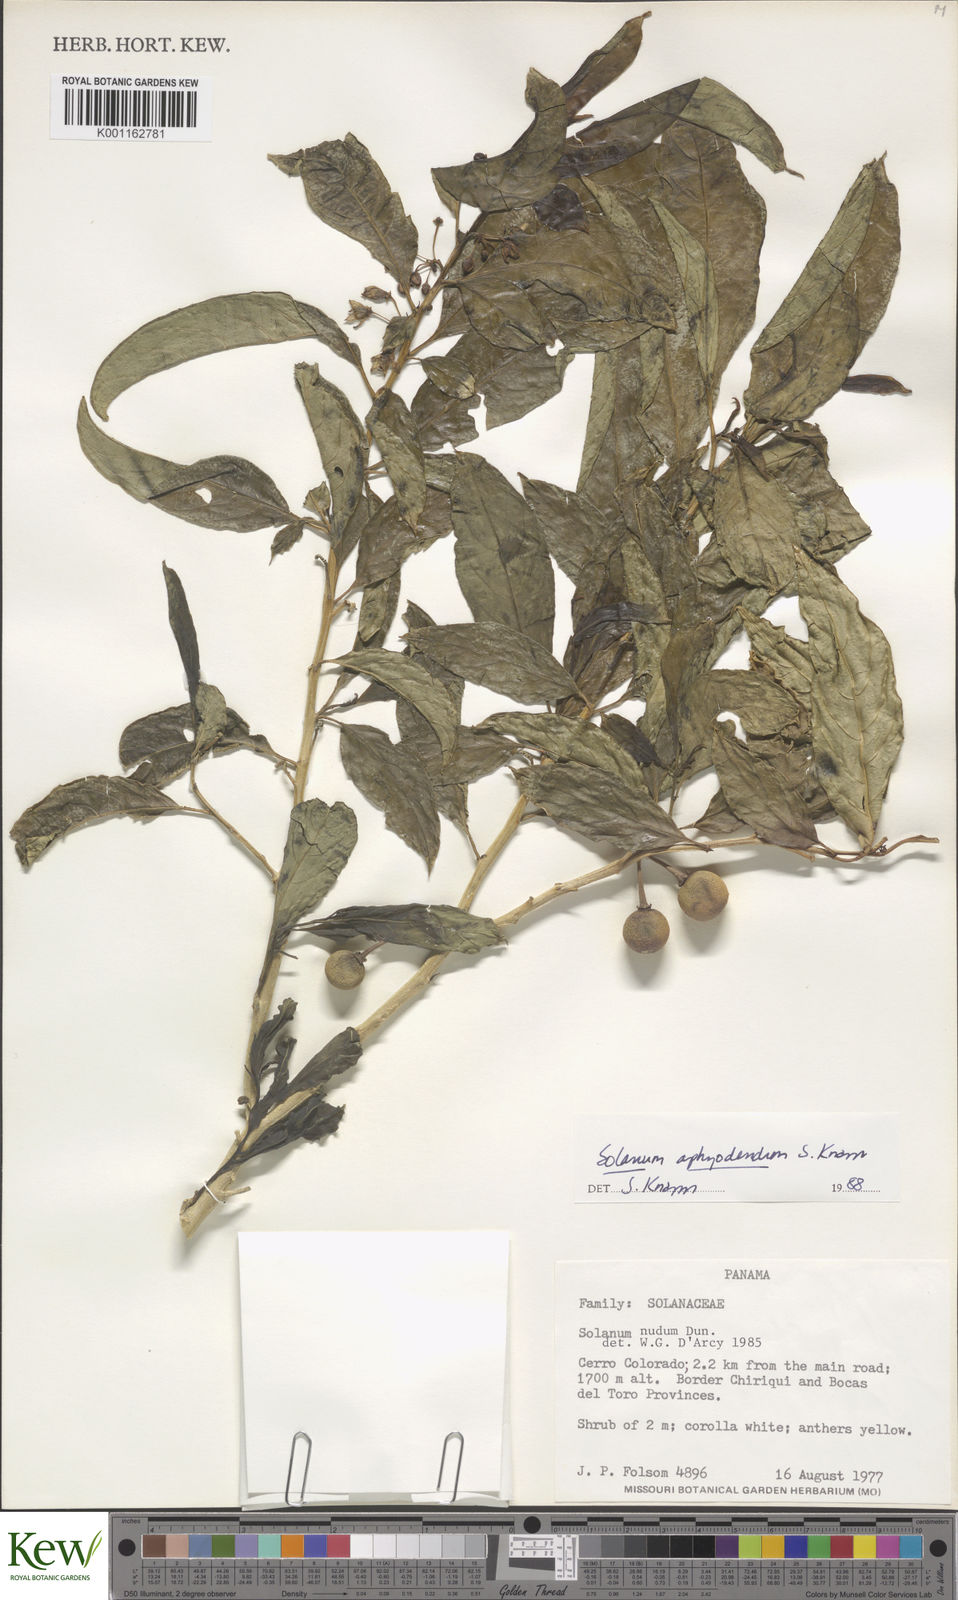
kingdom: Plantae
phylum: Tracheophyta
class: Magnoliopsida
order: Solanales
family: Solanaceae
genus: Solanum
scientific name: Solanum aphyodendron
